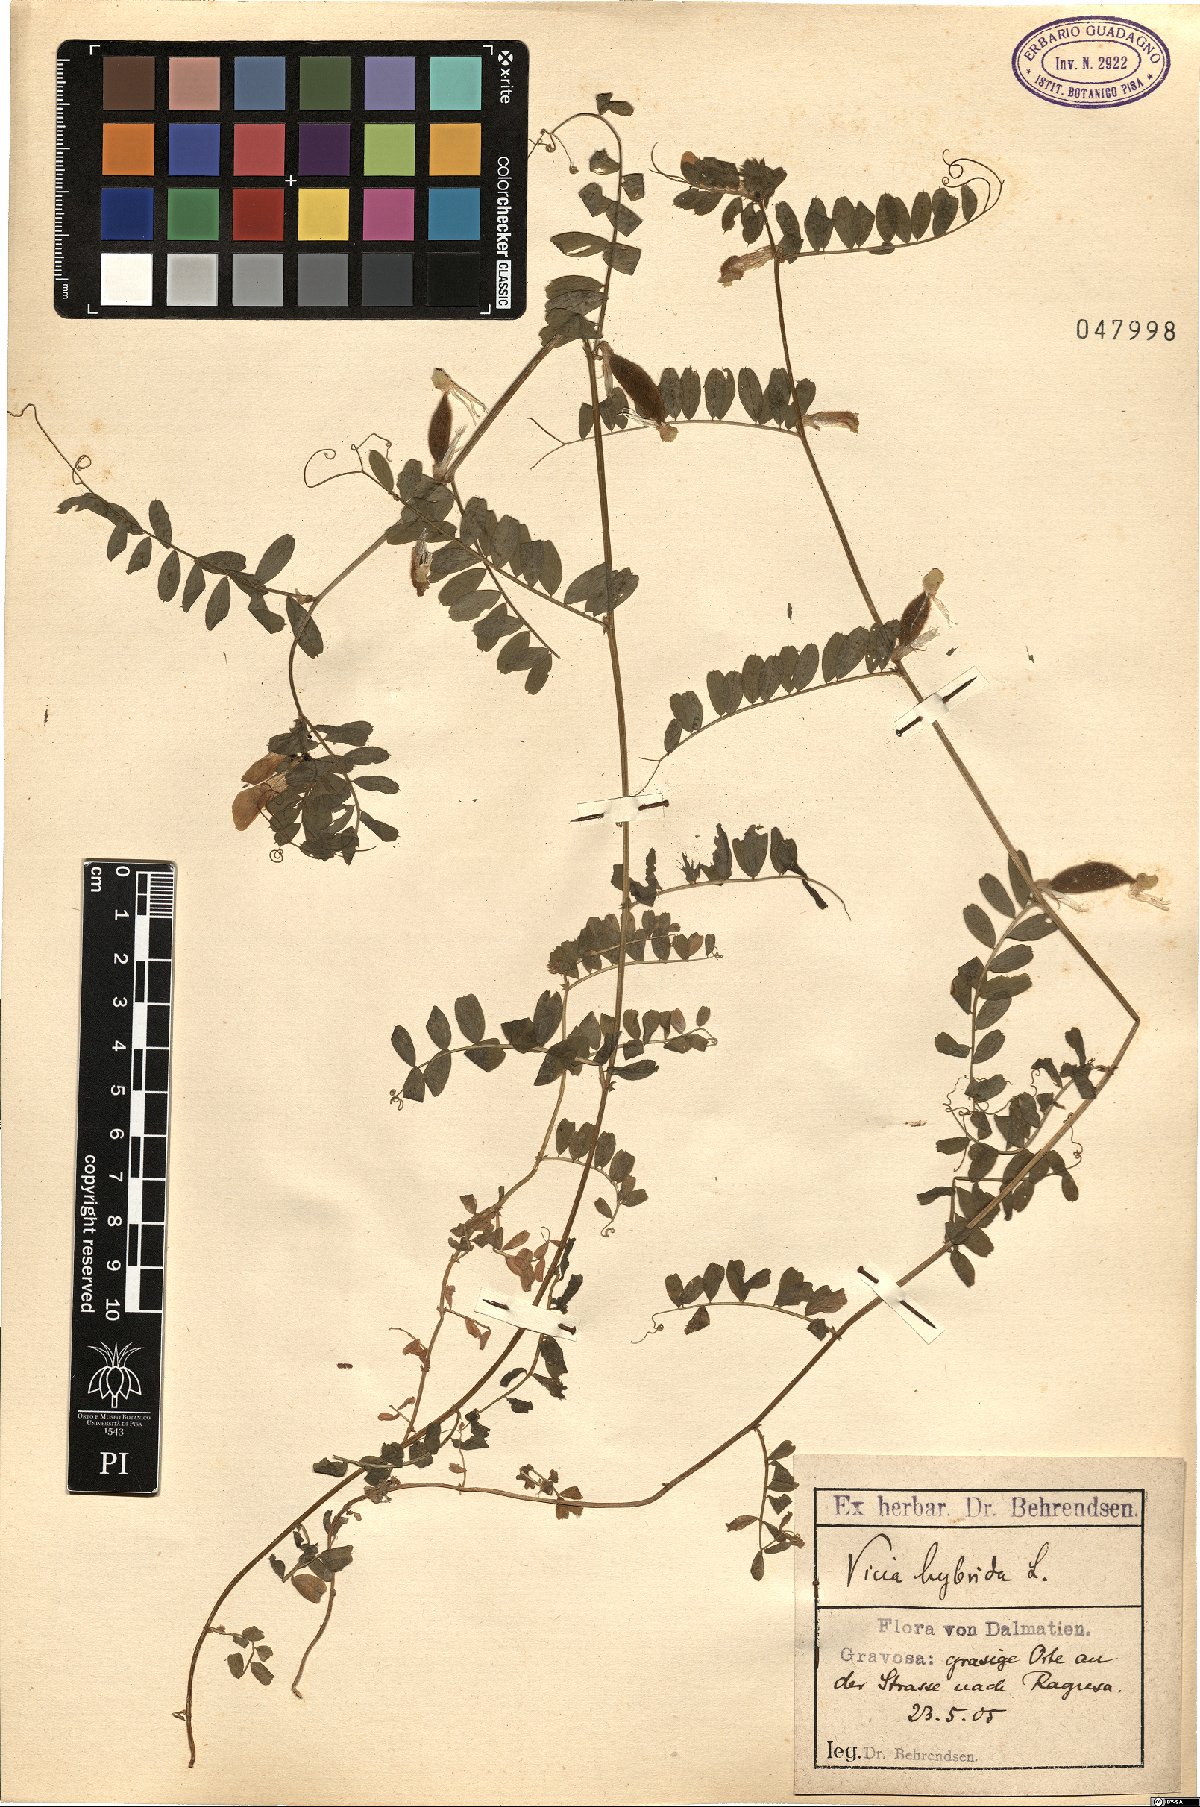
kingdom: Plantae
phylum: Tracheophyta
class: Magnoliopsida
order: Fabales
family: Fabaceae
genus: Vicia
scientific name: Vicia hybrida
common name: Hairy yellow vetch
